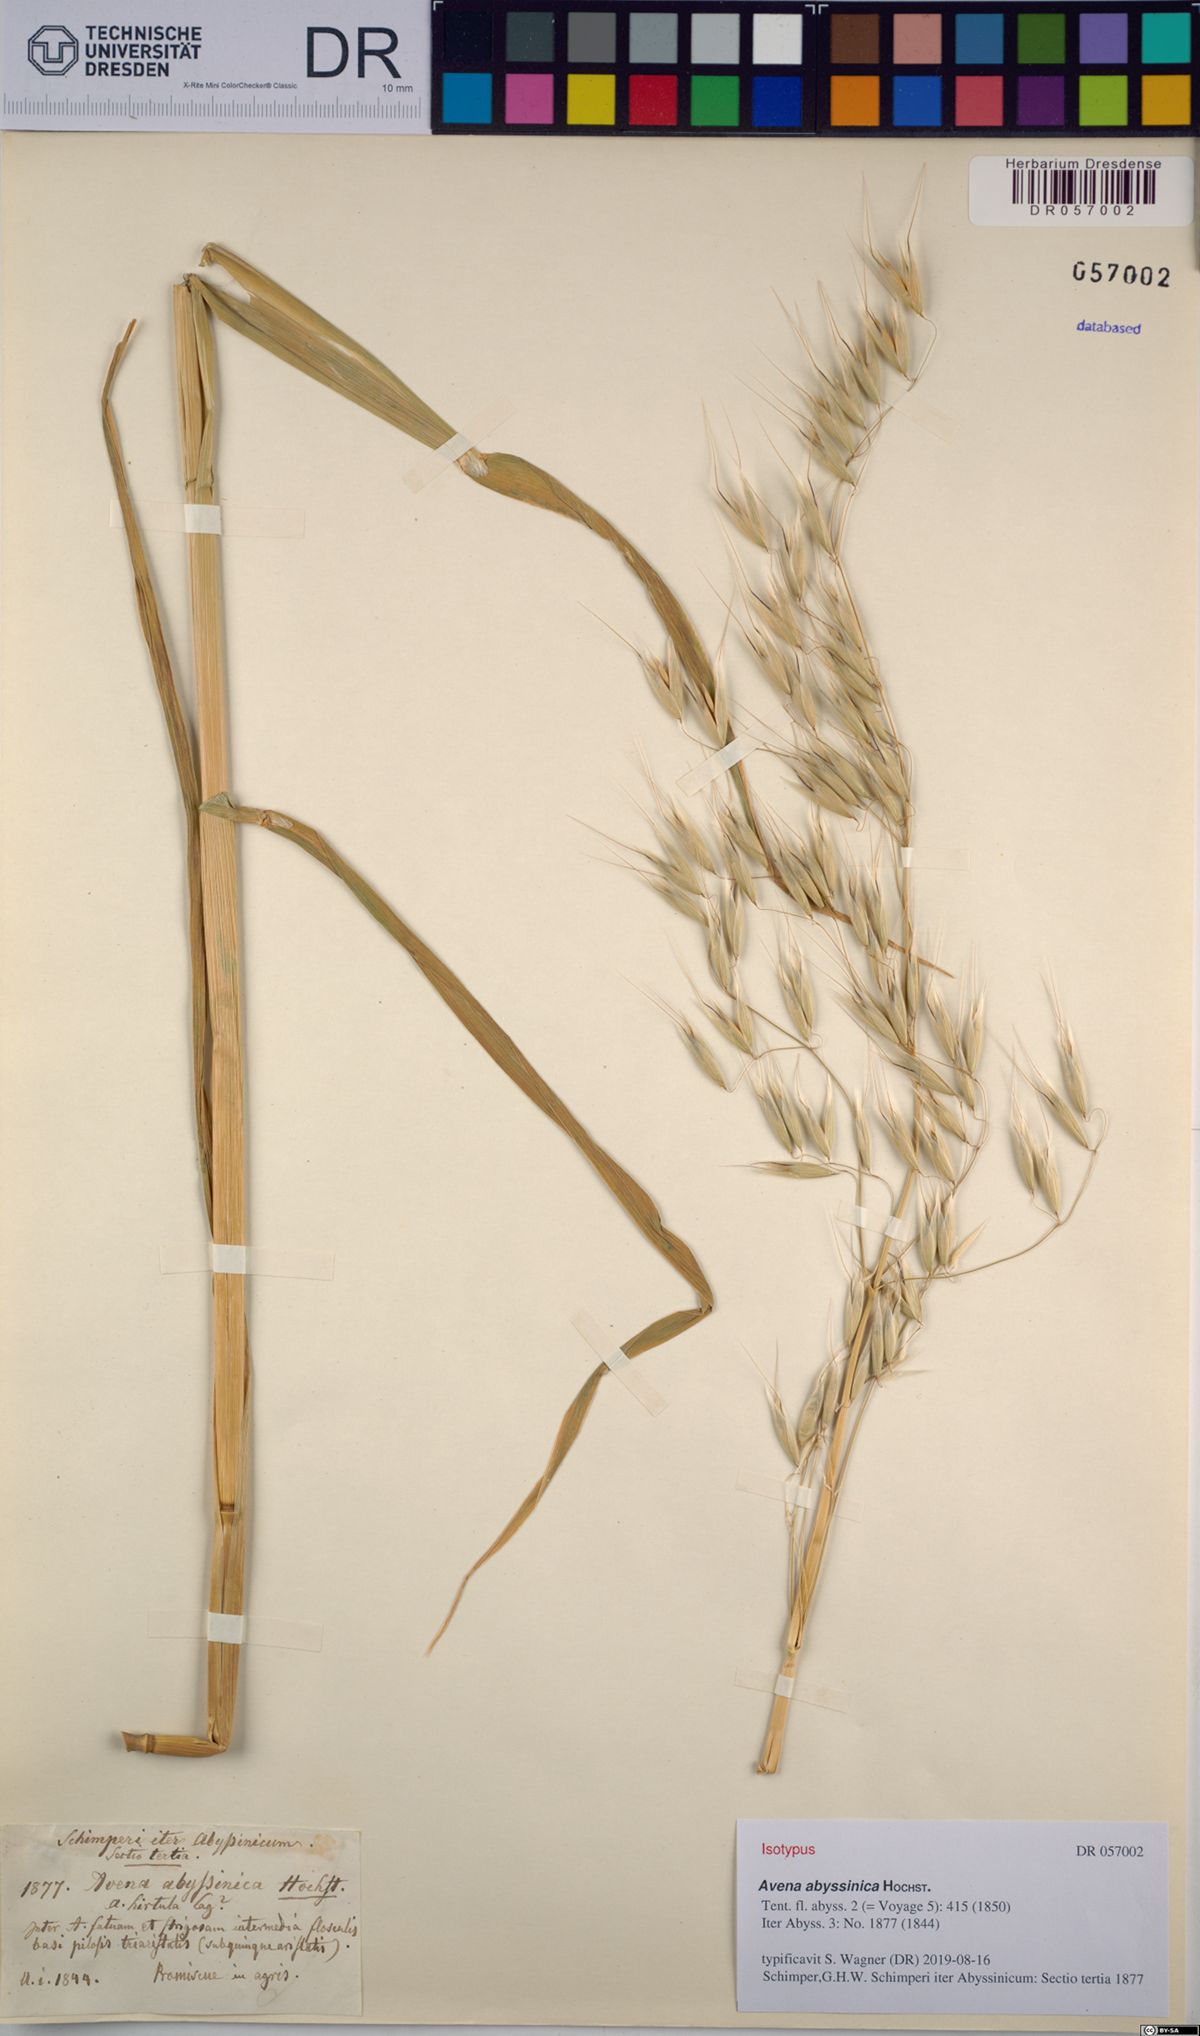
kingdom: Plantae
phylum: Tracheophyta
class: Liliopsida
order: Poales
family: Poaceae
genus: Avena
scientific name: Avena abyssinica
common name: Ethiopian oat
